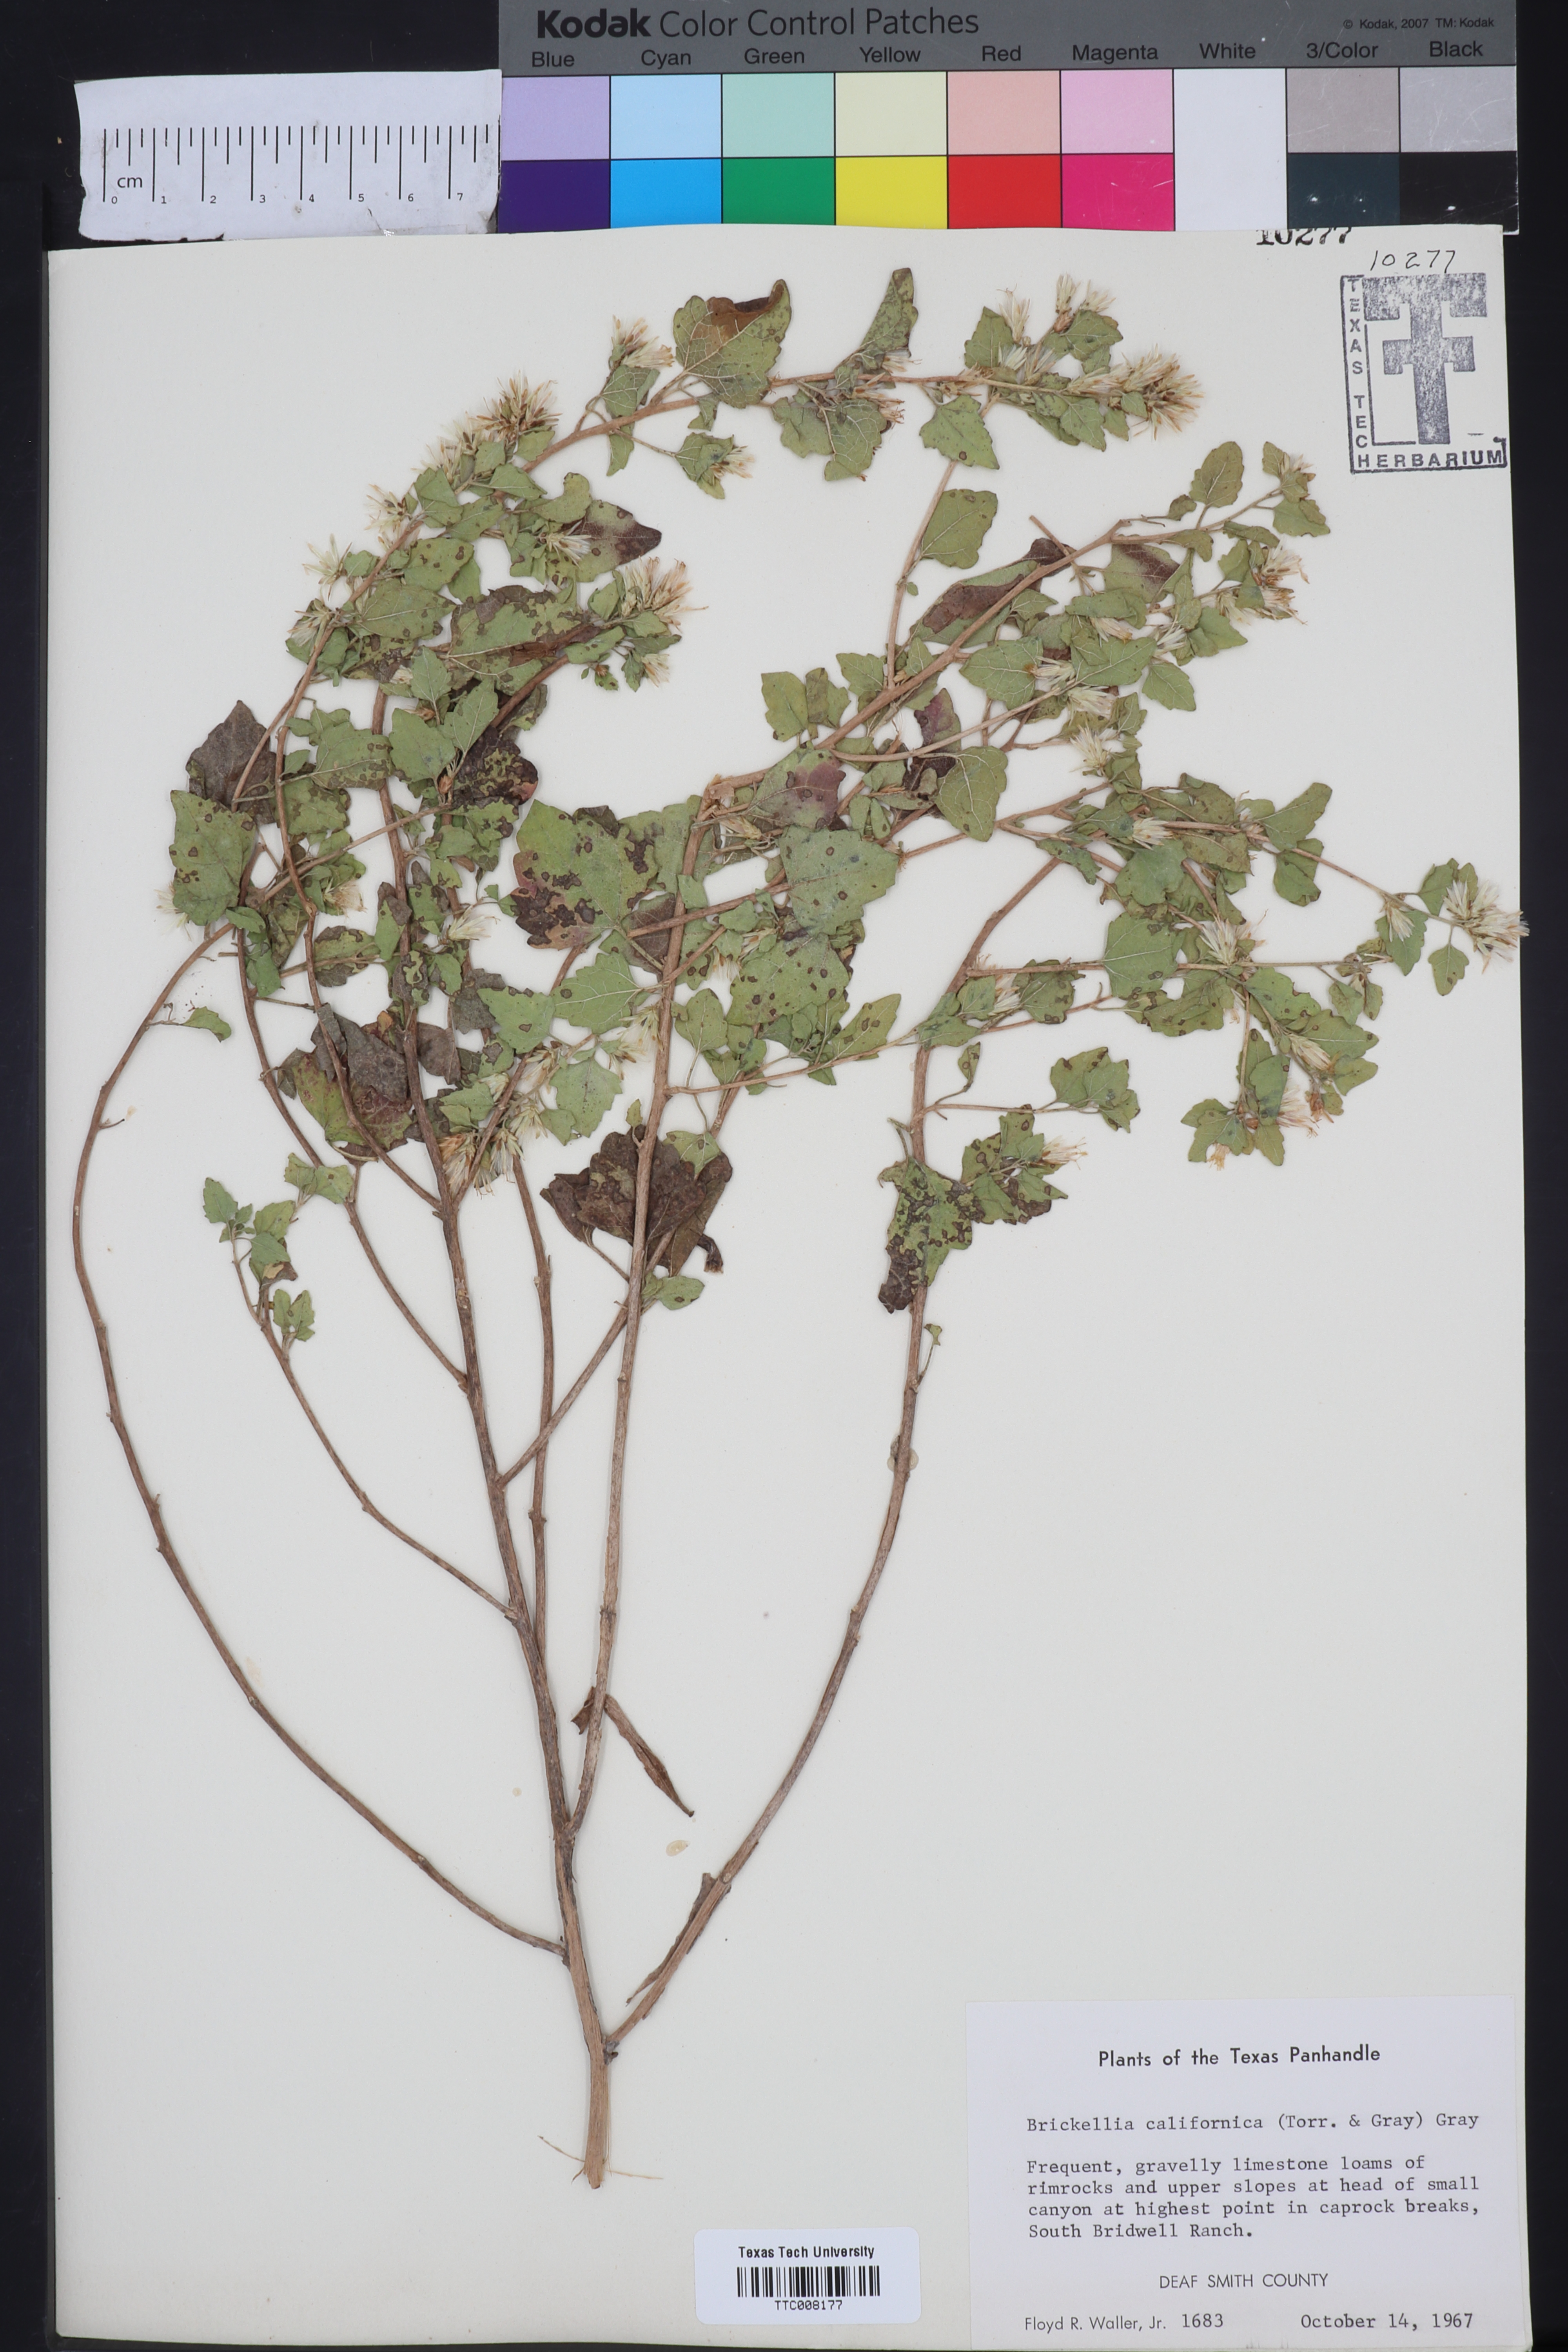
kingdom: Plantae
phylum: Tracheophyta
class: Magnoliopsida
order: Asterales
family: Asteraceae
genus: Brickellia
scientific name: Brickellia californica
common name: California brickellbush
